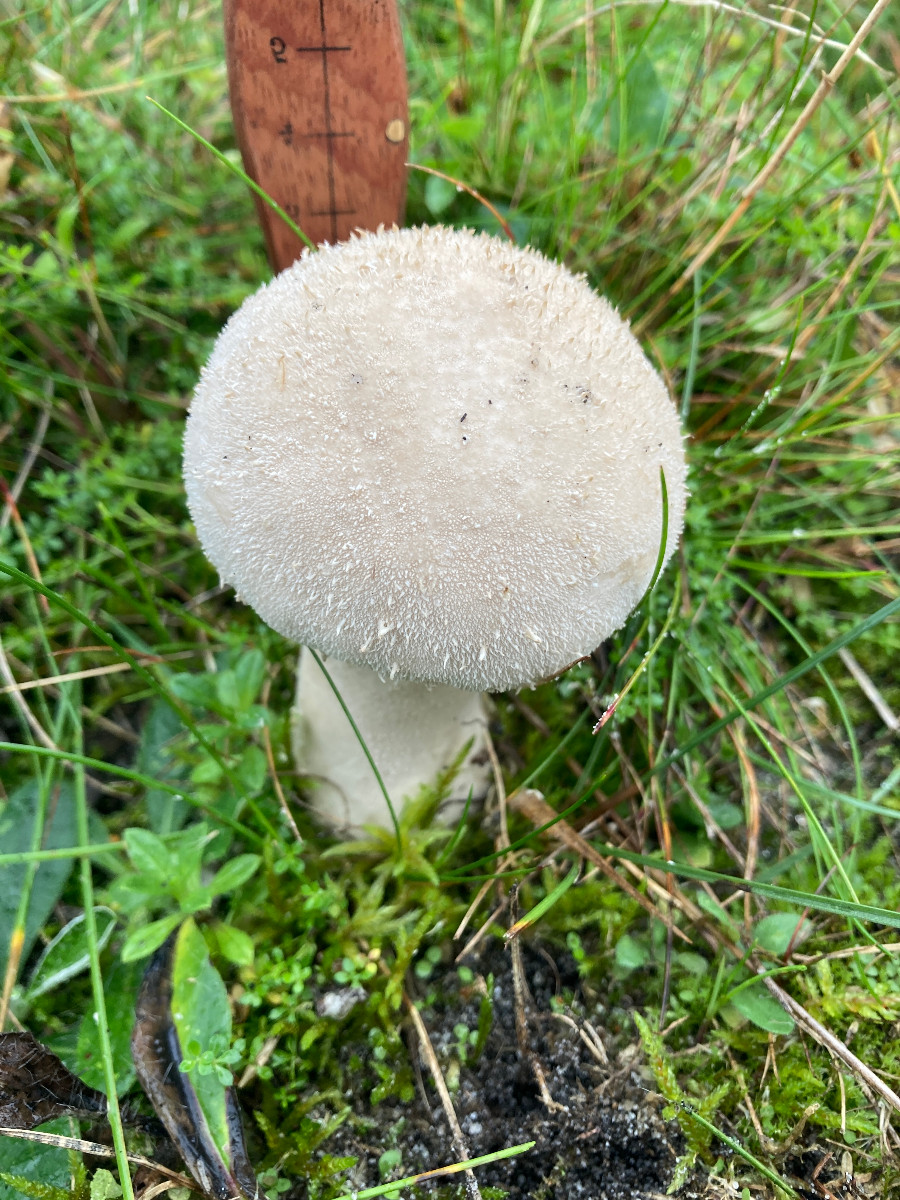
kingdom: Fungi
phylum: Basidiomycota
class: Agaricomycetes
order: Agaricales
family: Lycoperdaceae
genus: Lycoperdon
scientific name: Lycoperdon excipuliforme
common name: højstokket støvbold
